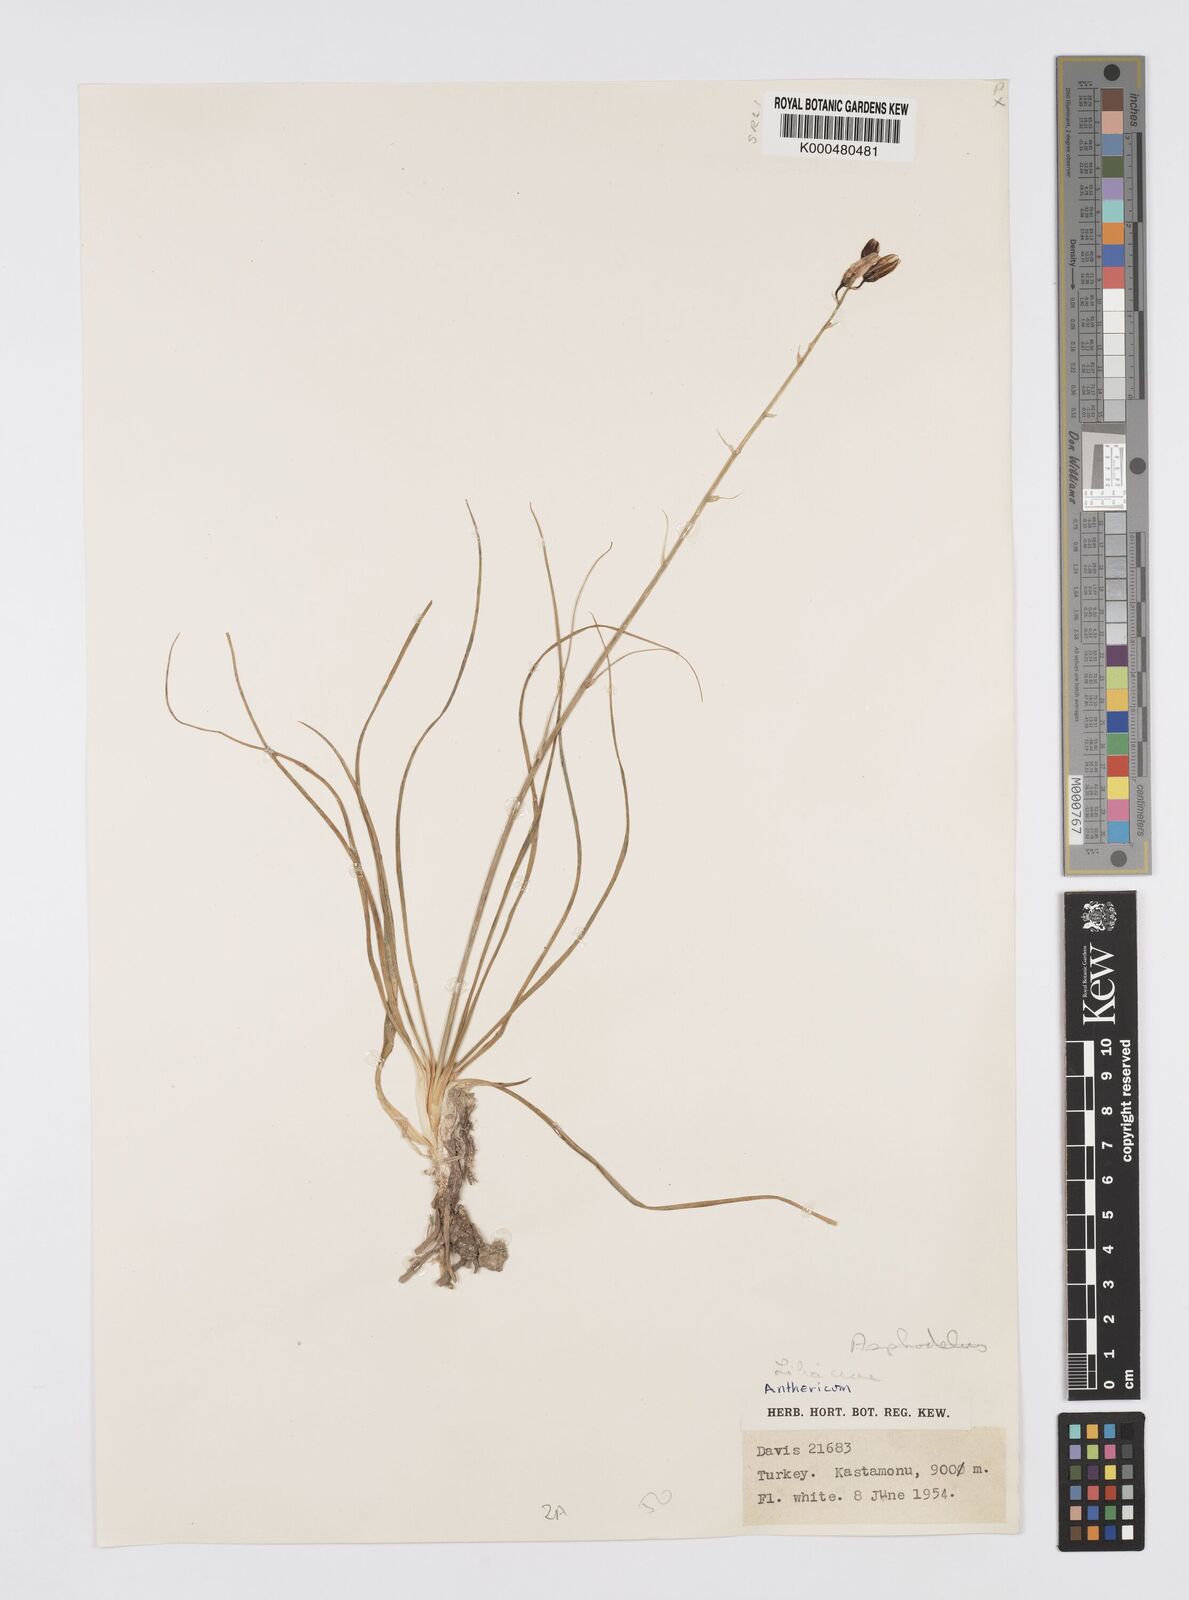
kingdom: Plantae
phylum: Tracheophyta
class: Liliopsida
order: Asparagales
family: Asphodelaceae
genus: Asphodelus
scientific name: Asphodelus fistulosus
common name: Onionweed
